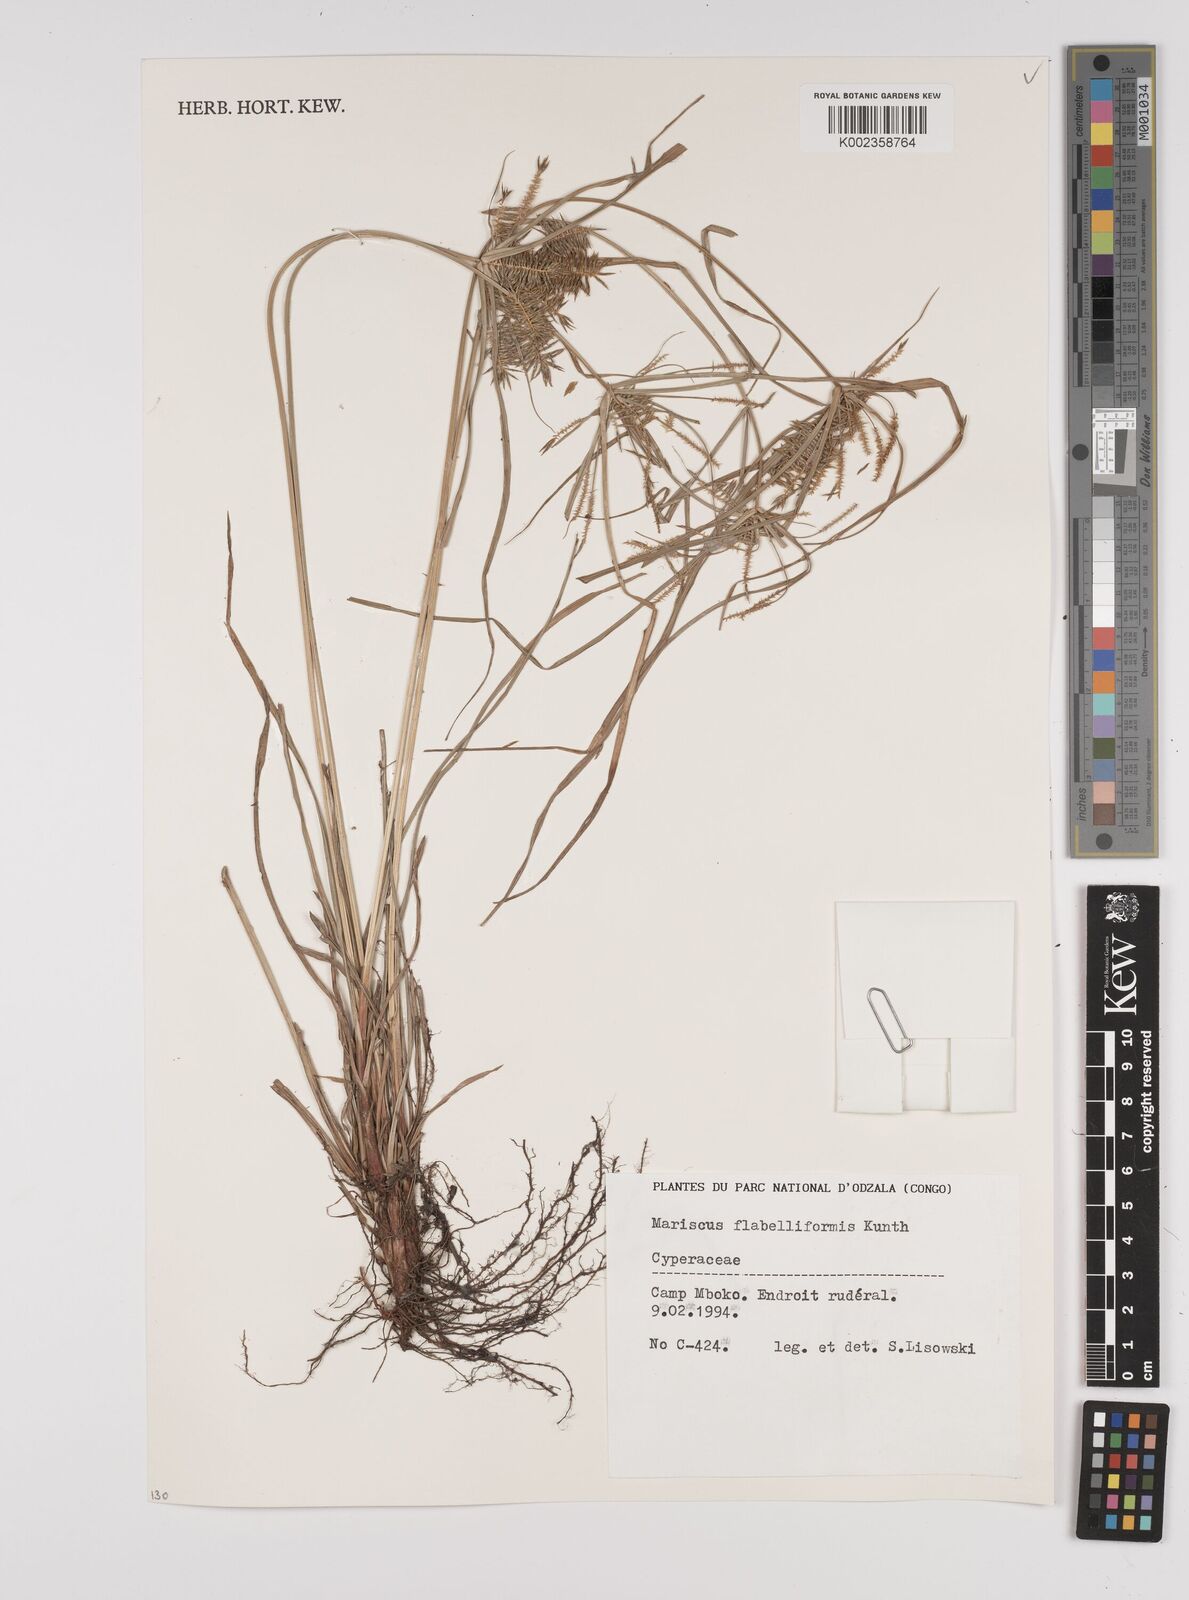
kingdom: Plantae
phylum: Tracheophyta
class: Liliopsida
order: Poales
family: Cyperaceae
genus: Cyperus
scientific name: Cyperus alternifolius
